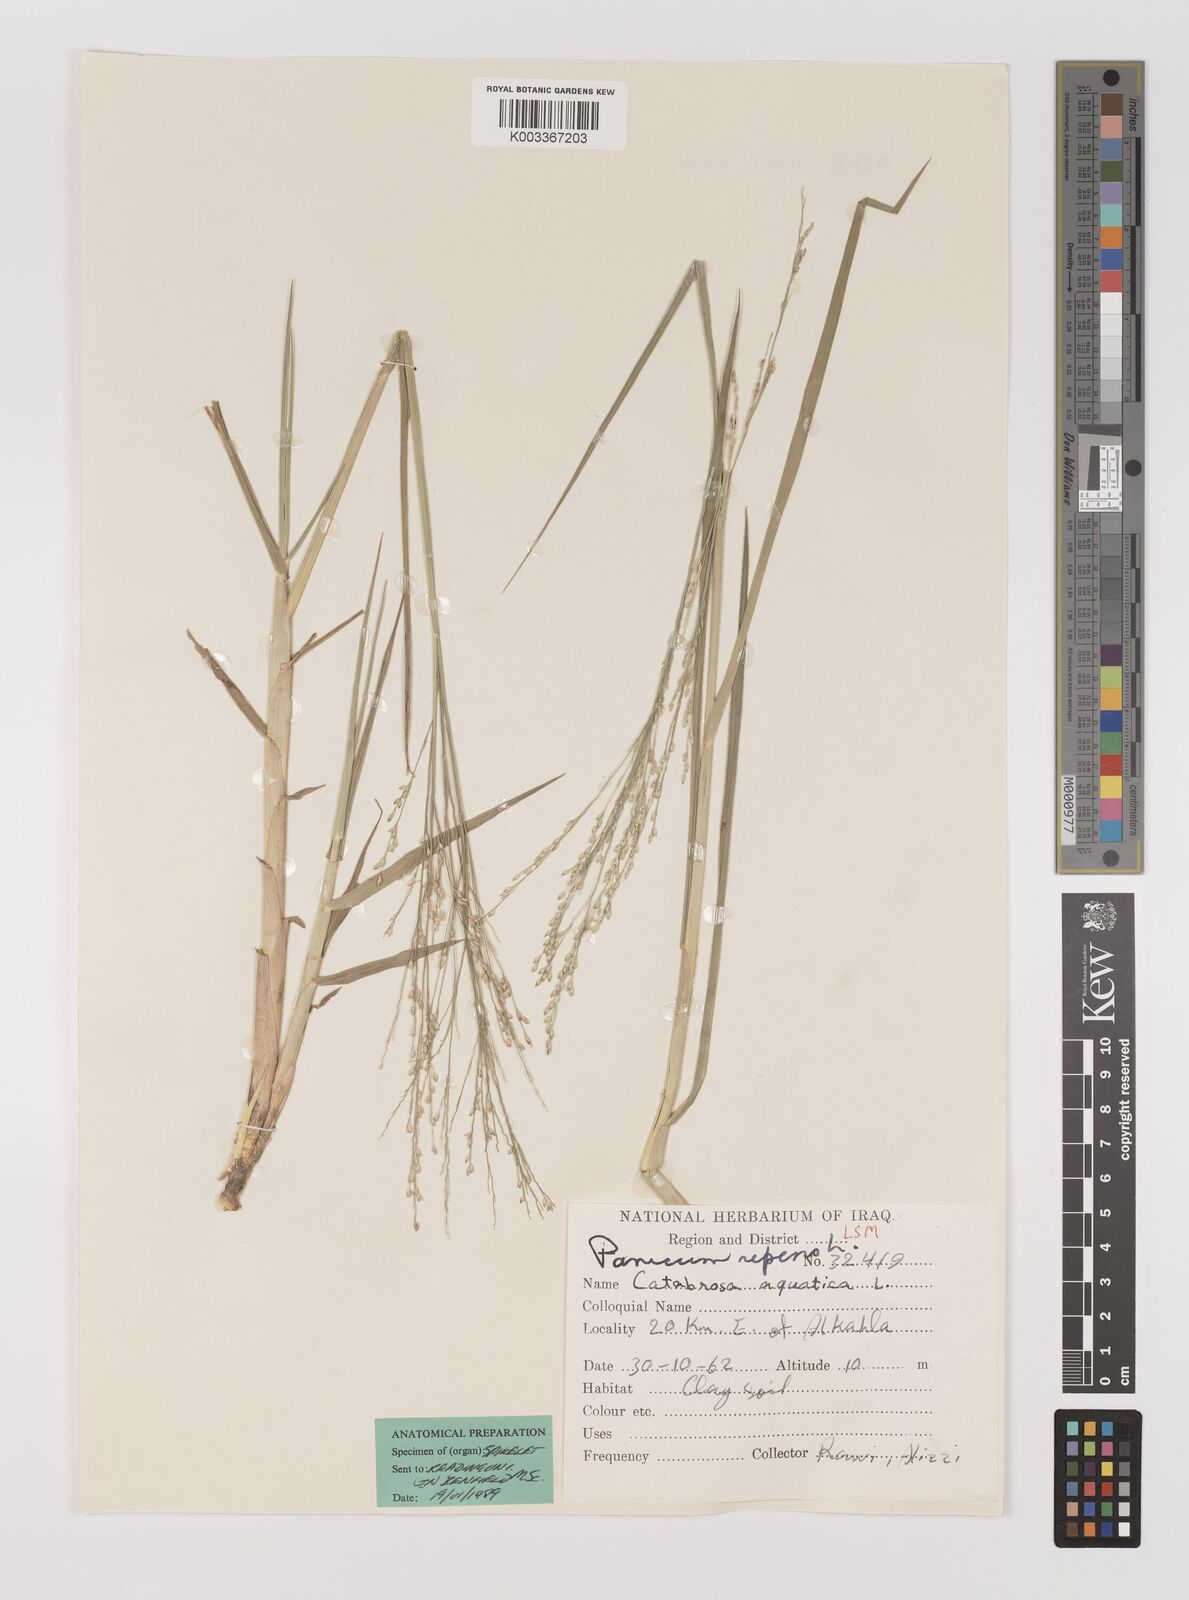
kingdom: Plantae
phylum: Tracheophyta
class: Liliopsida
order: Poales
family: Poaceae
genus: Panicum
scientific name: Panicum repens
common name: Torpedo grass
